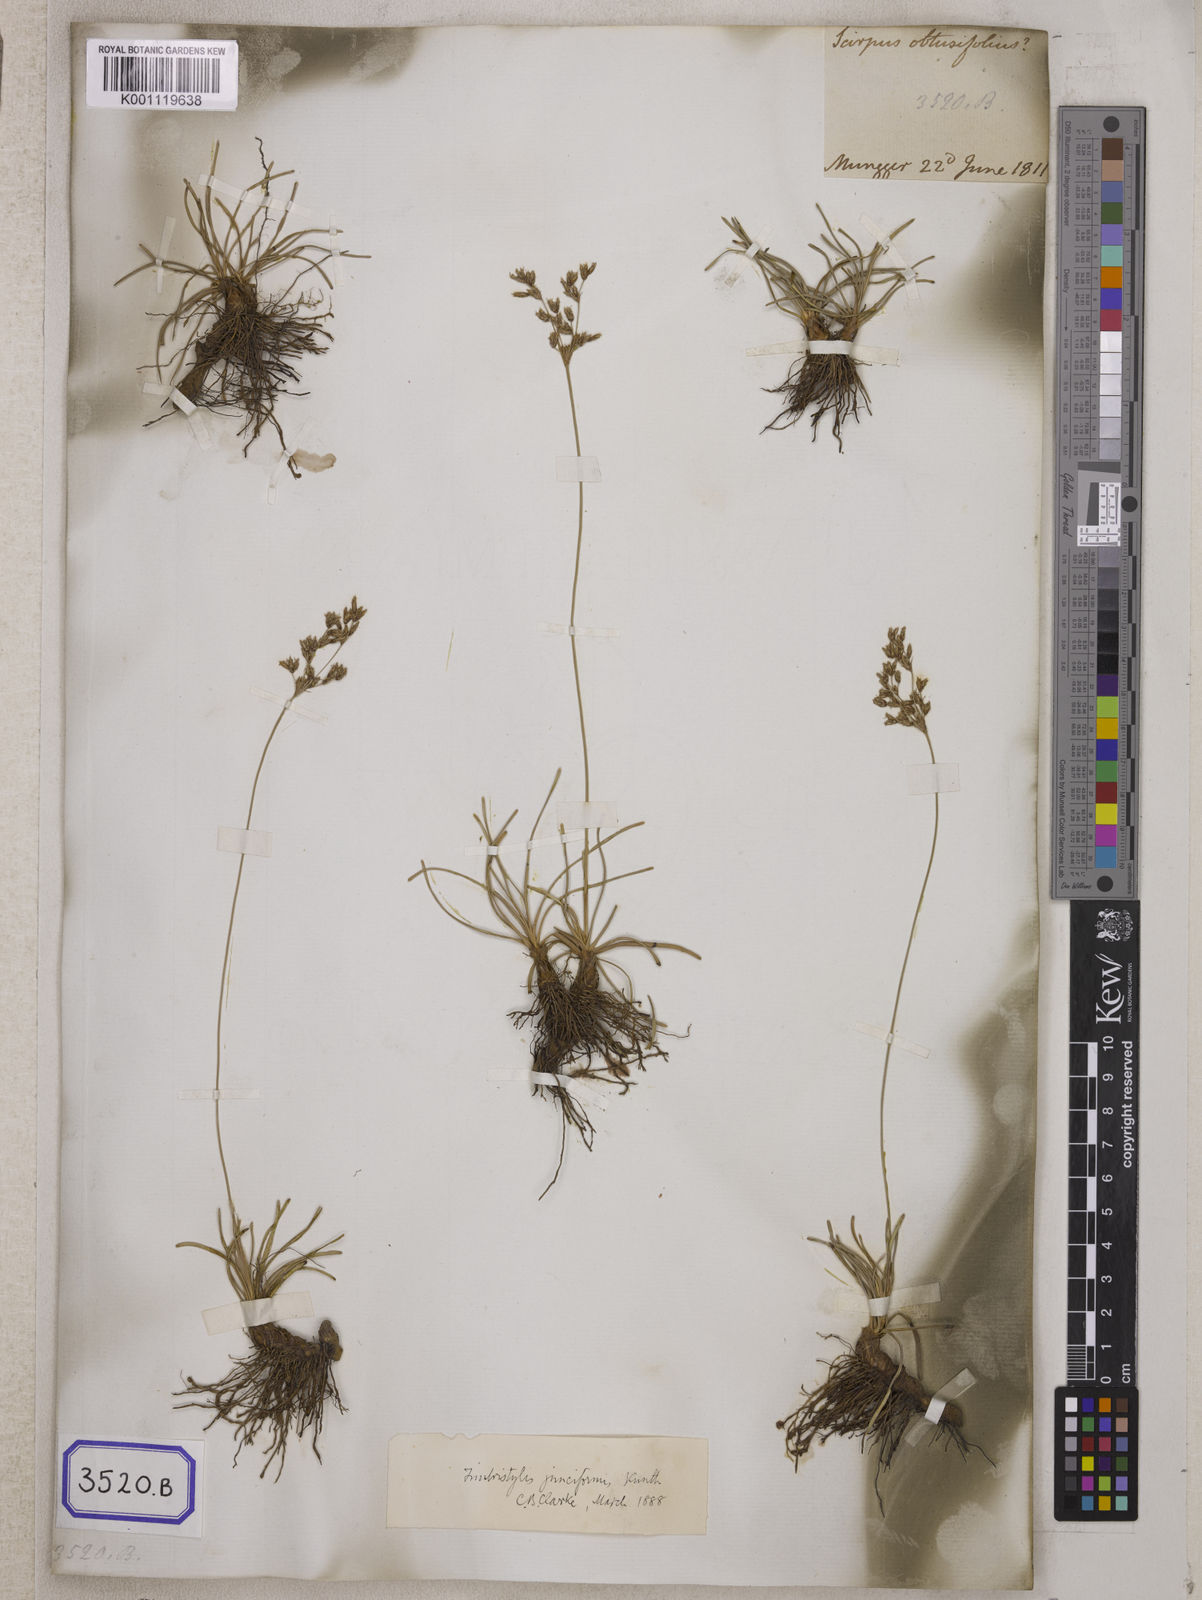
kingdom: Plantae
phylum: Tracheophyta
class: Liliopsida
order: Poales
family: Cyperaceae
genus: Fimbristylis
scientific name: Fimbristylis
